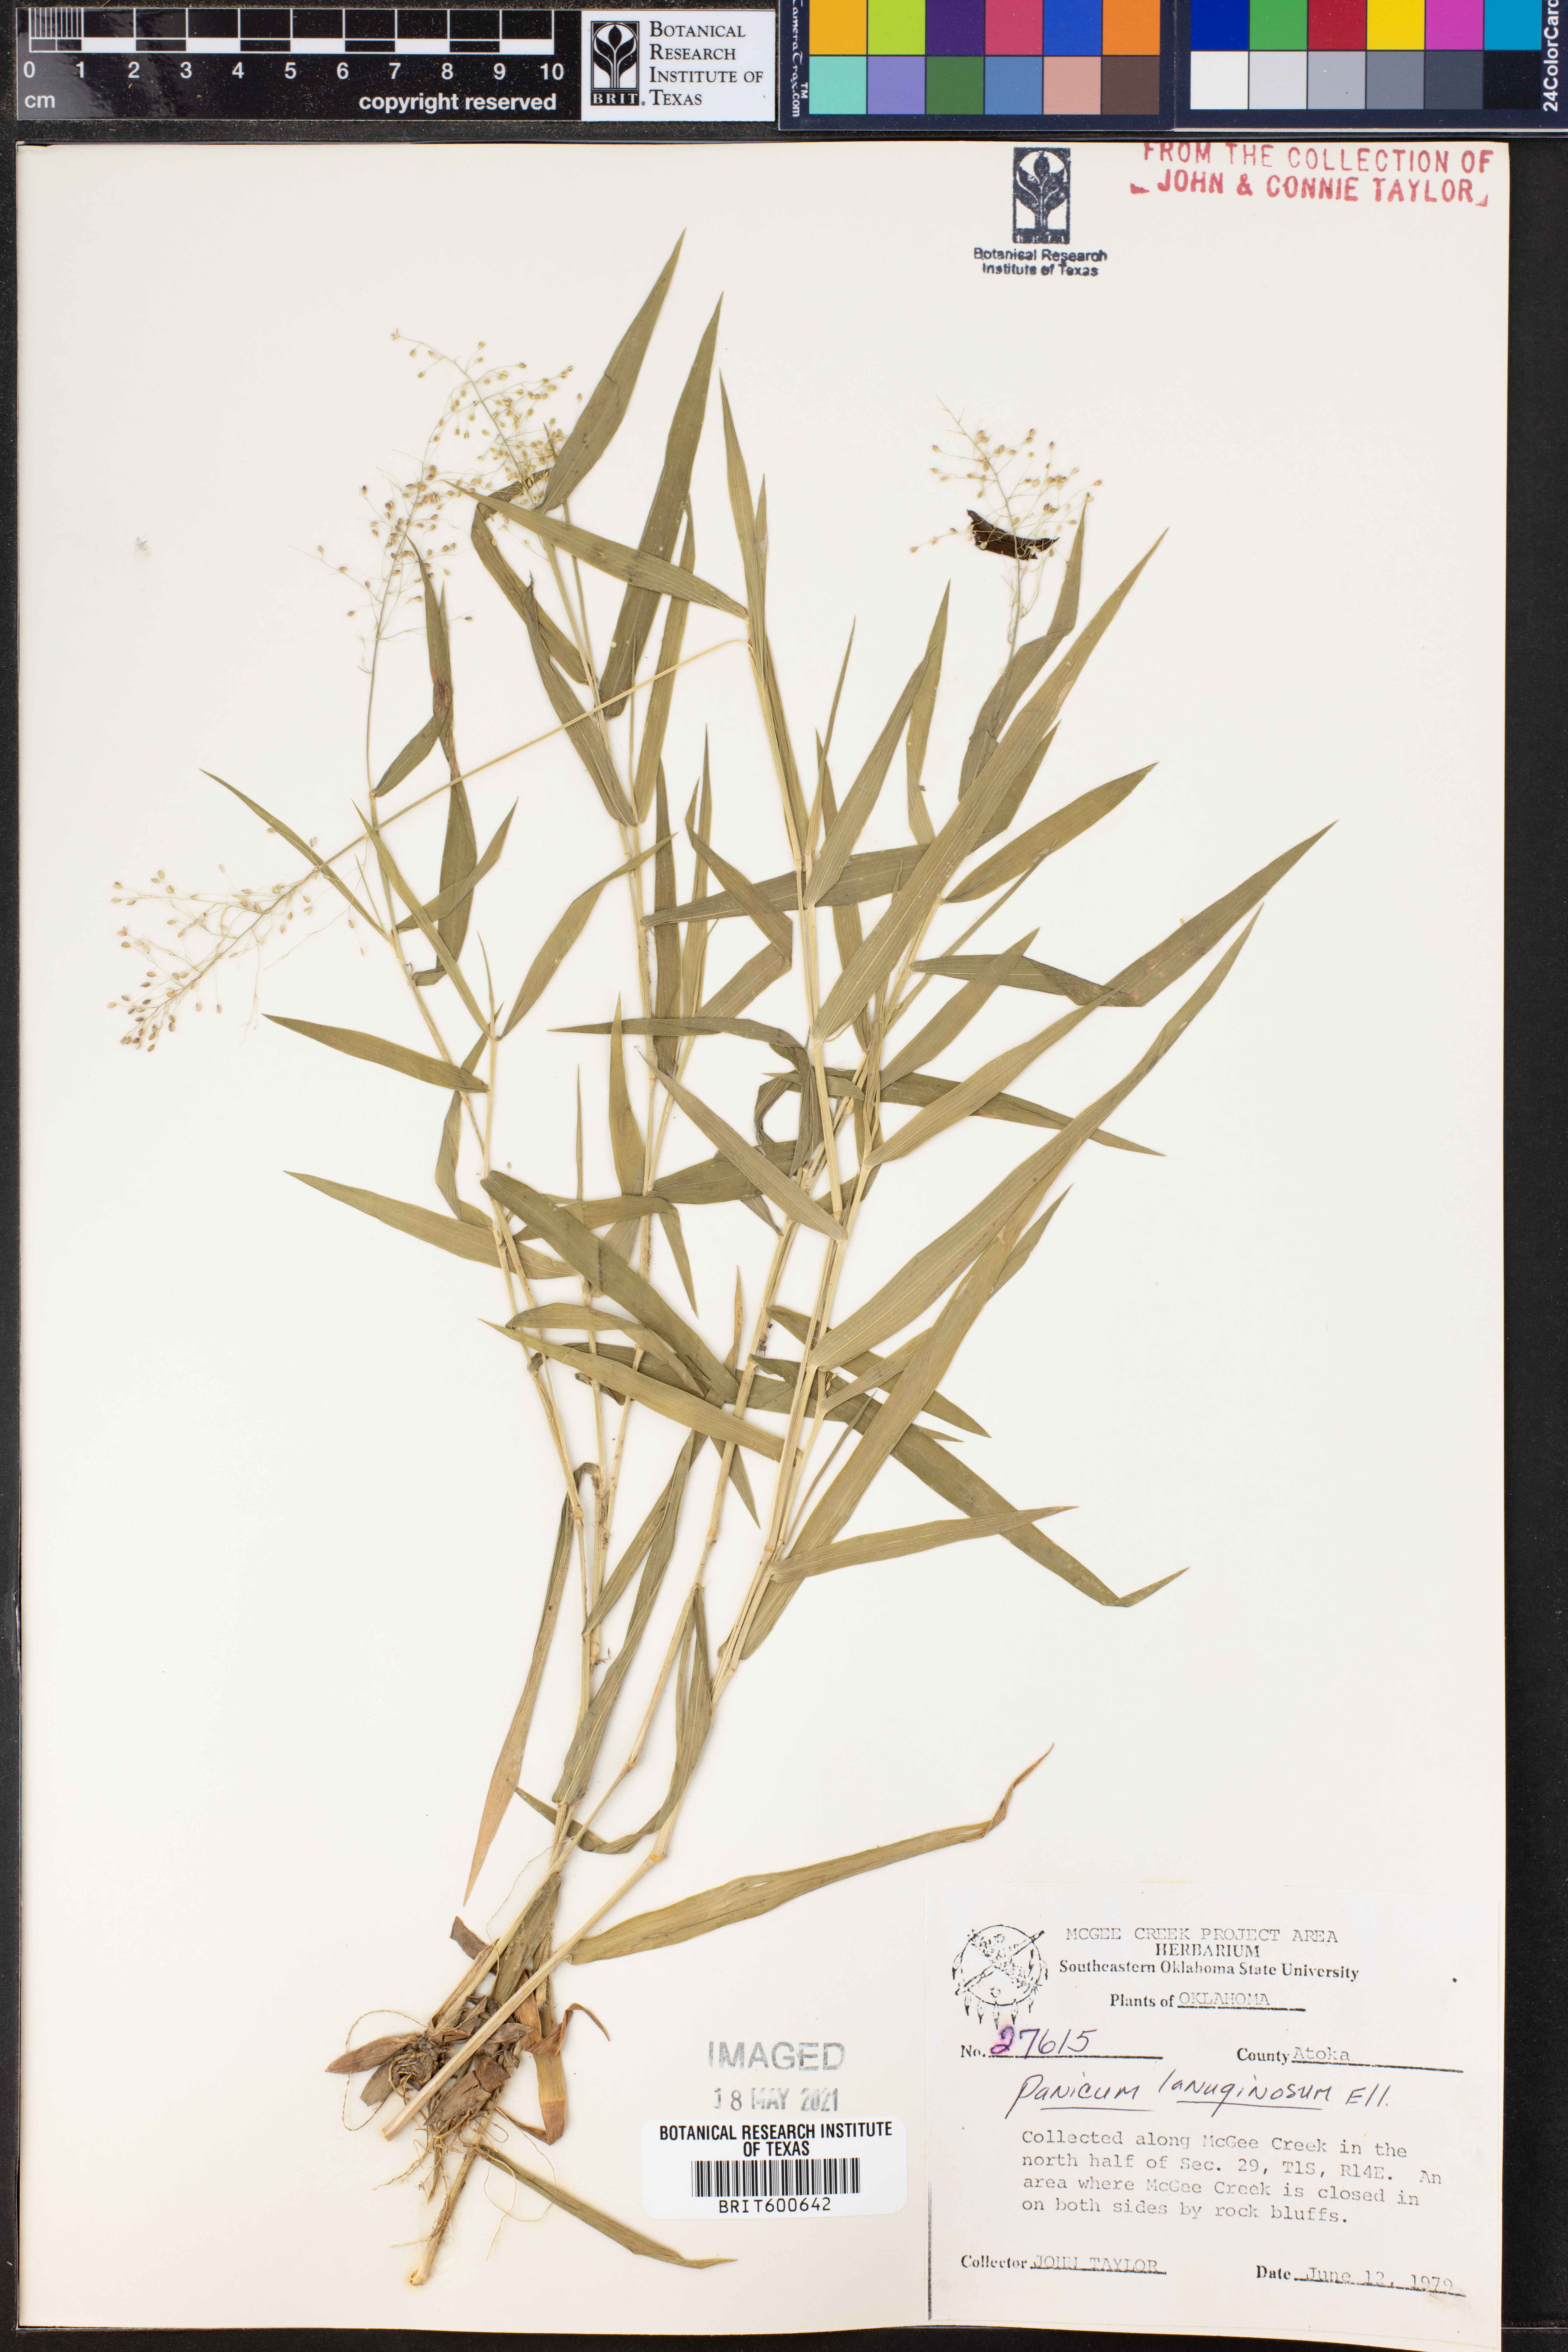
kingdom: Plantae
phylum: Tracheophyta
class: Liliopsida
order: Poales
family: Poaceae
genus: Dichanthelium
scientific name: Dichanthelium lanuginosum
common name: Woolly panicgrass
